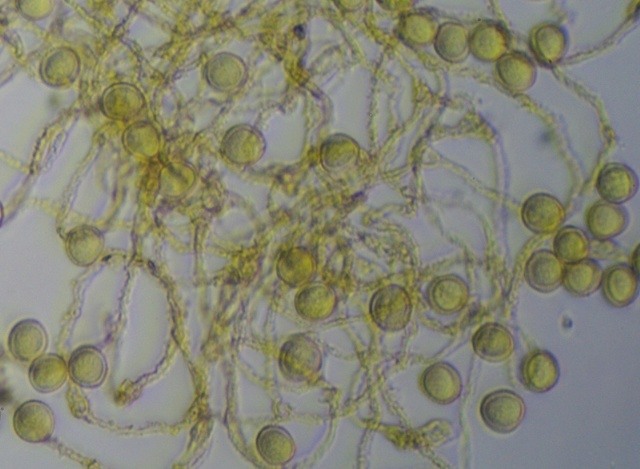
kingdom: Protozoa
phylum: Mycetozoa
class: Myxomycetes
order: Trichiales
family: Trichiaceae
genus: Perichaena
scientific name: Perichaena corticalis
